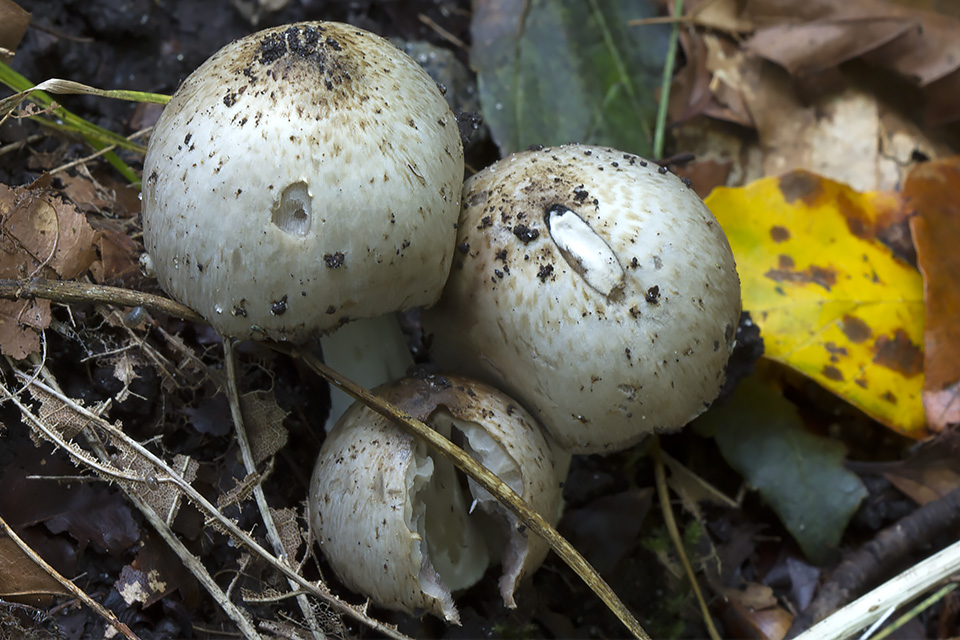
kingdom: Fungi
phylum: Basidiomycota
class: Agaricomycetes
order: Agaricales
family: Psathyrellaceae
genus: Coprinopsis
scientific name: Coprinopsis romagnesiana
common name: brunskællet blækhat
